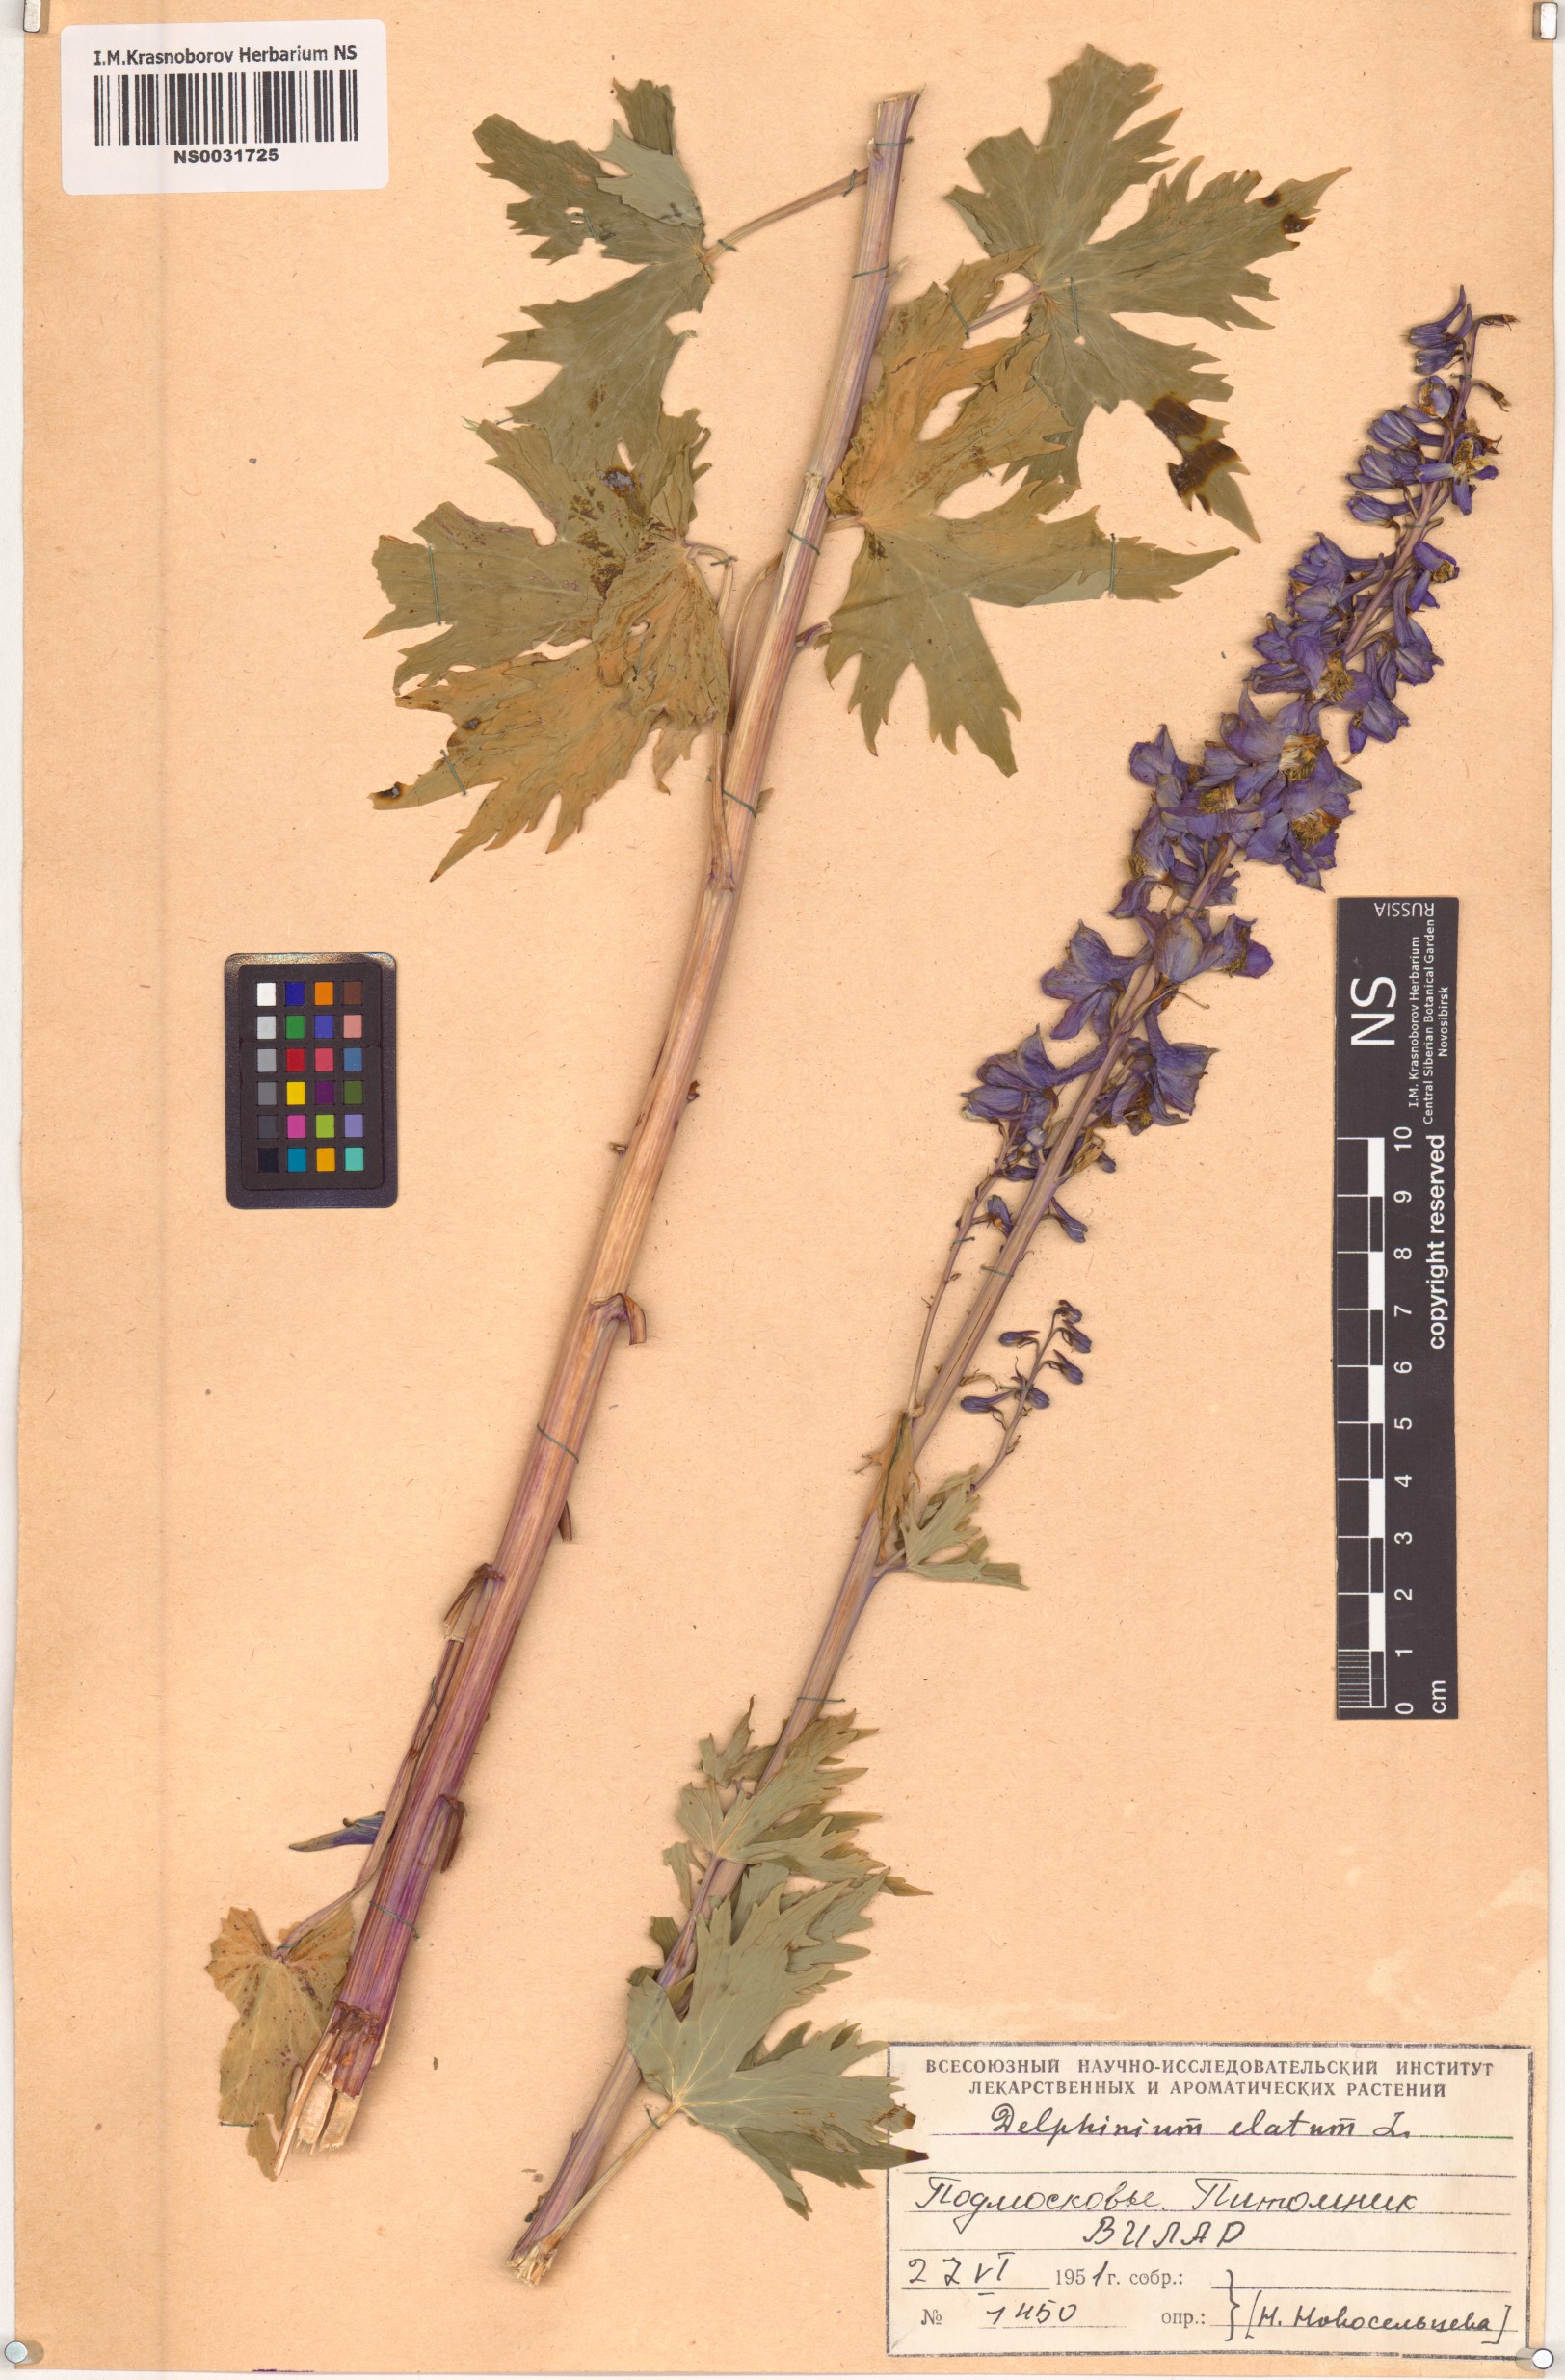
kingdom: Plantae
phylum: Tracheophyta
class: Magnoliopsida
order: Ranunculales
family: Ranunculaceae
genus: Delphinium
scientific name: Delphinium elatum
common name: Candle larkspur
